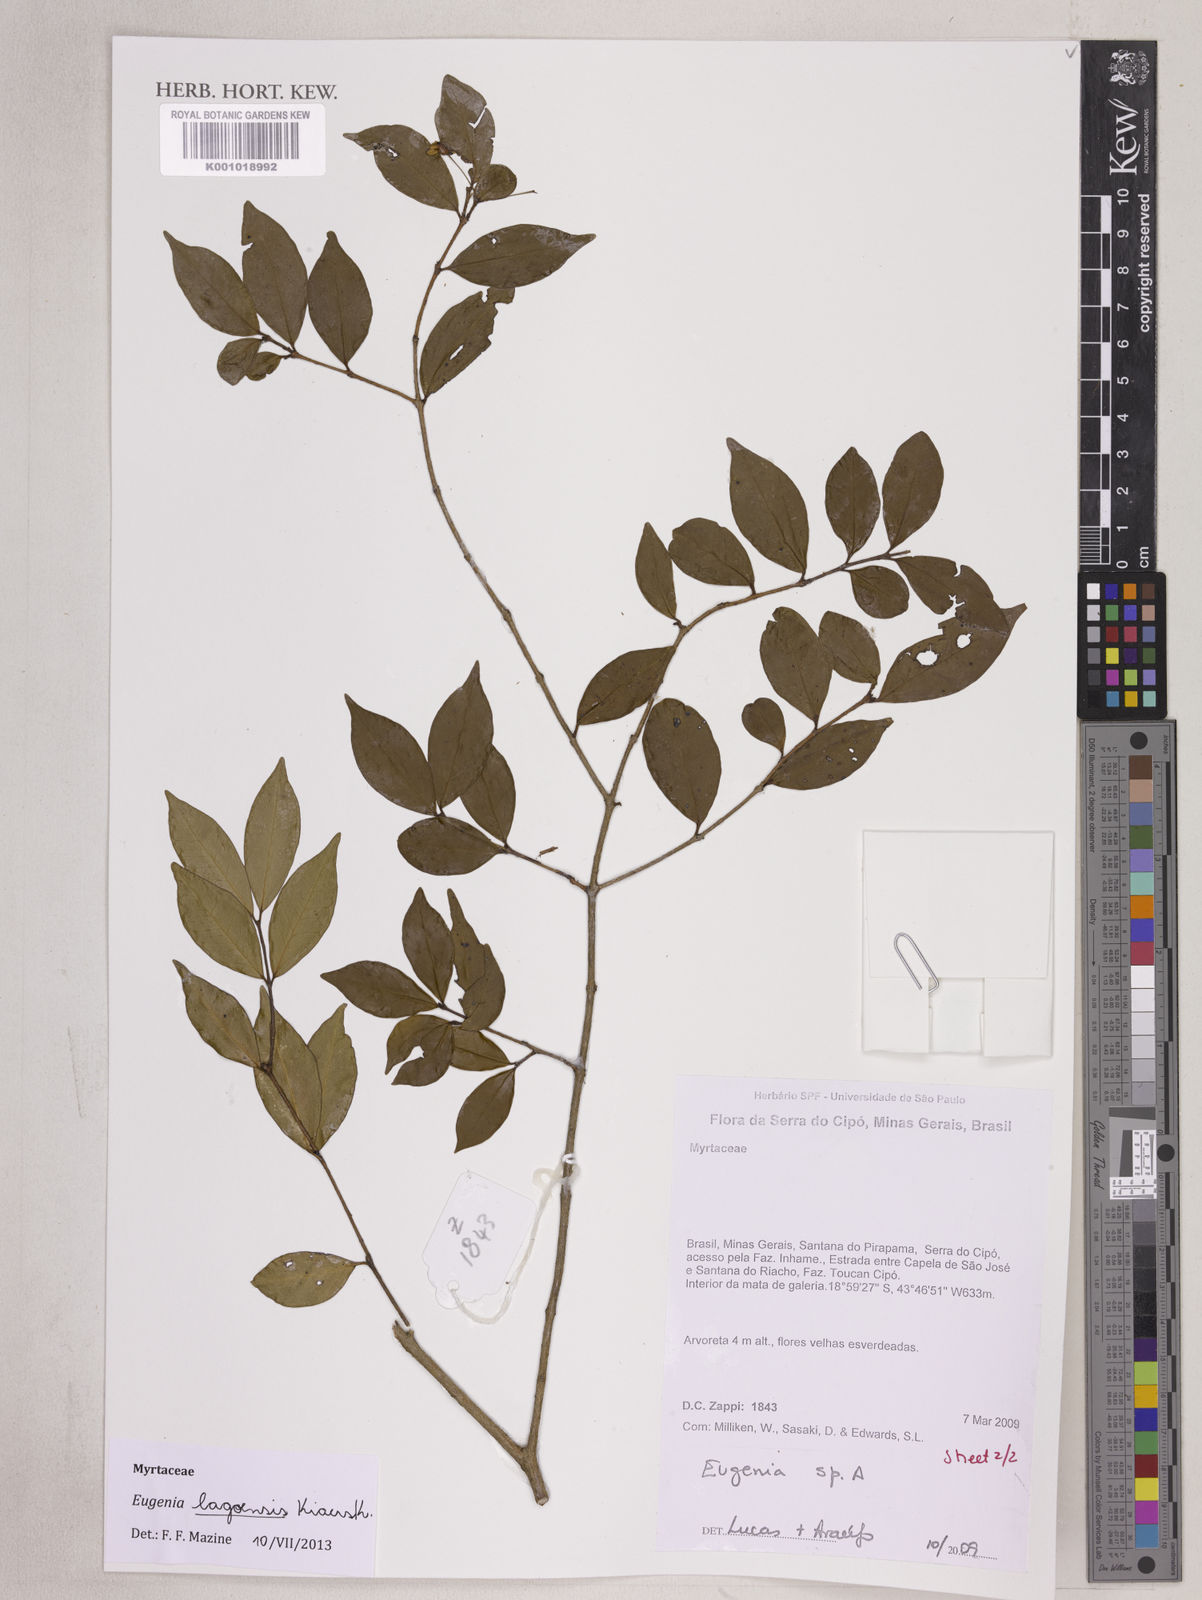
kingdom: Plantae
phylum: Tracheophyta
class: Magnoliopsida
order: Myrtales
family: Myrtaceae
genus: Eugenia
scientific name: Eugenia lagoensis
